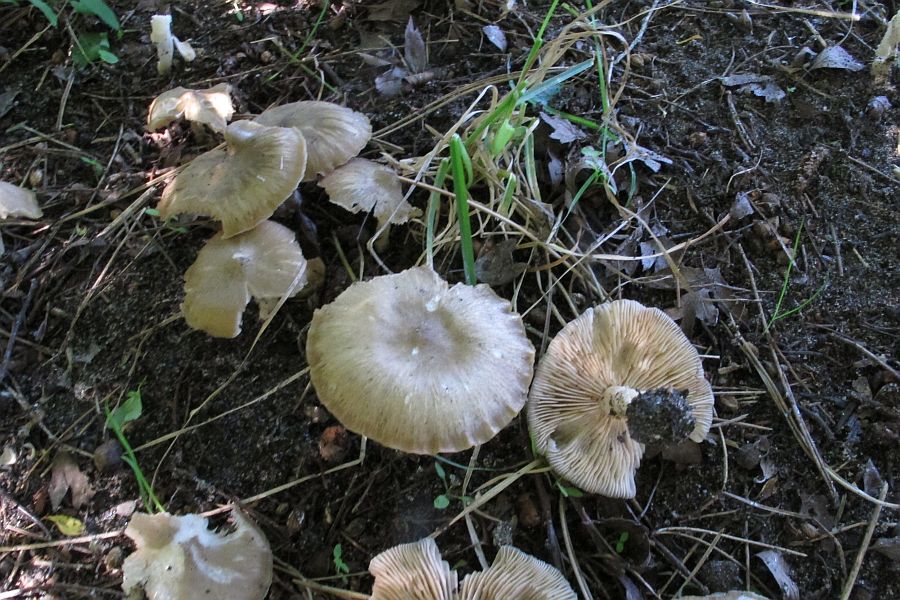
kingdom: Fungi
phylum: Basidiomycota
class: Agaricomycetes
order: Agaricales
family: Entolomataceae
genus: Entoloma
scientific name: Entoloma clypeatum
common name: flammet rødblad
